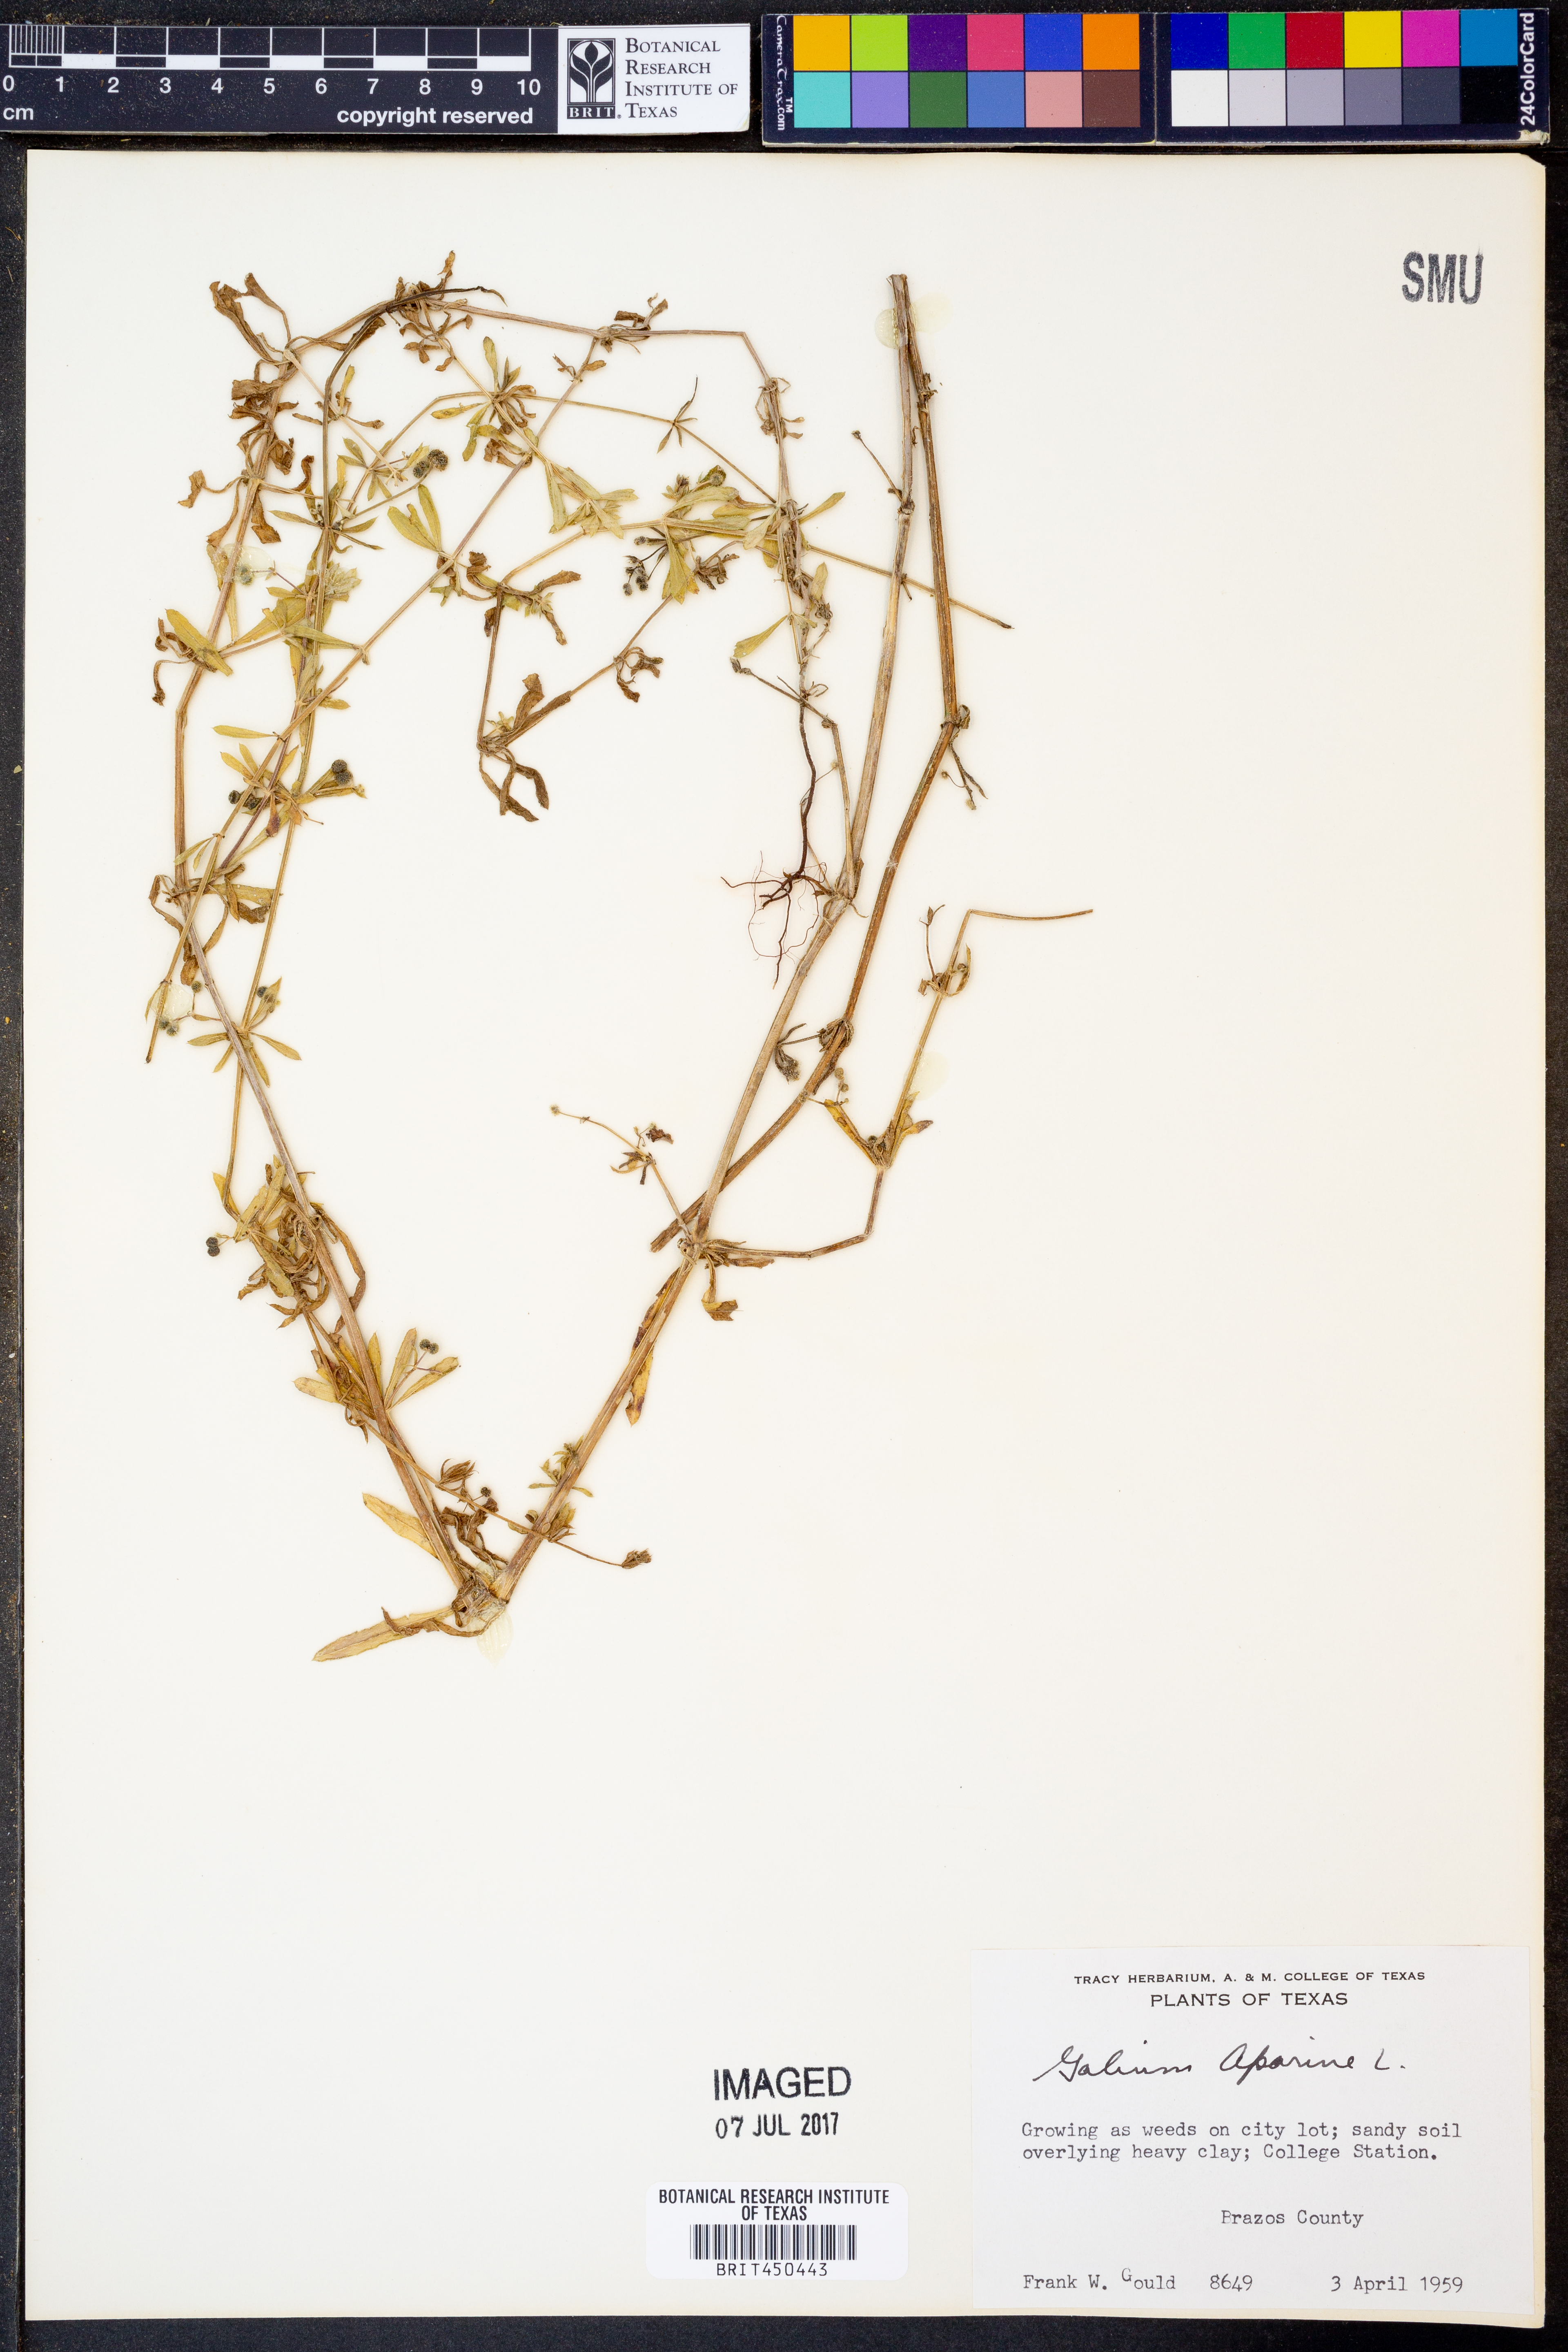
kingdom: Plantae
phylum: Tracheophyta
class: Magnoliopsida
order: Gentianales
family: Rubiaceae
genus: Galium
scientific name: Galium aparine
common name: Cleavers
